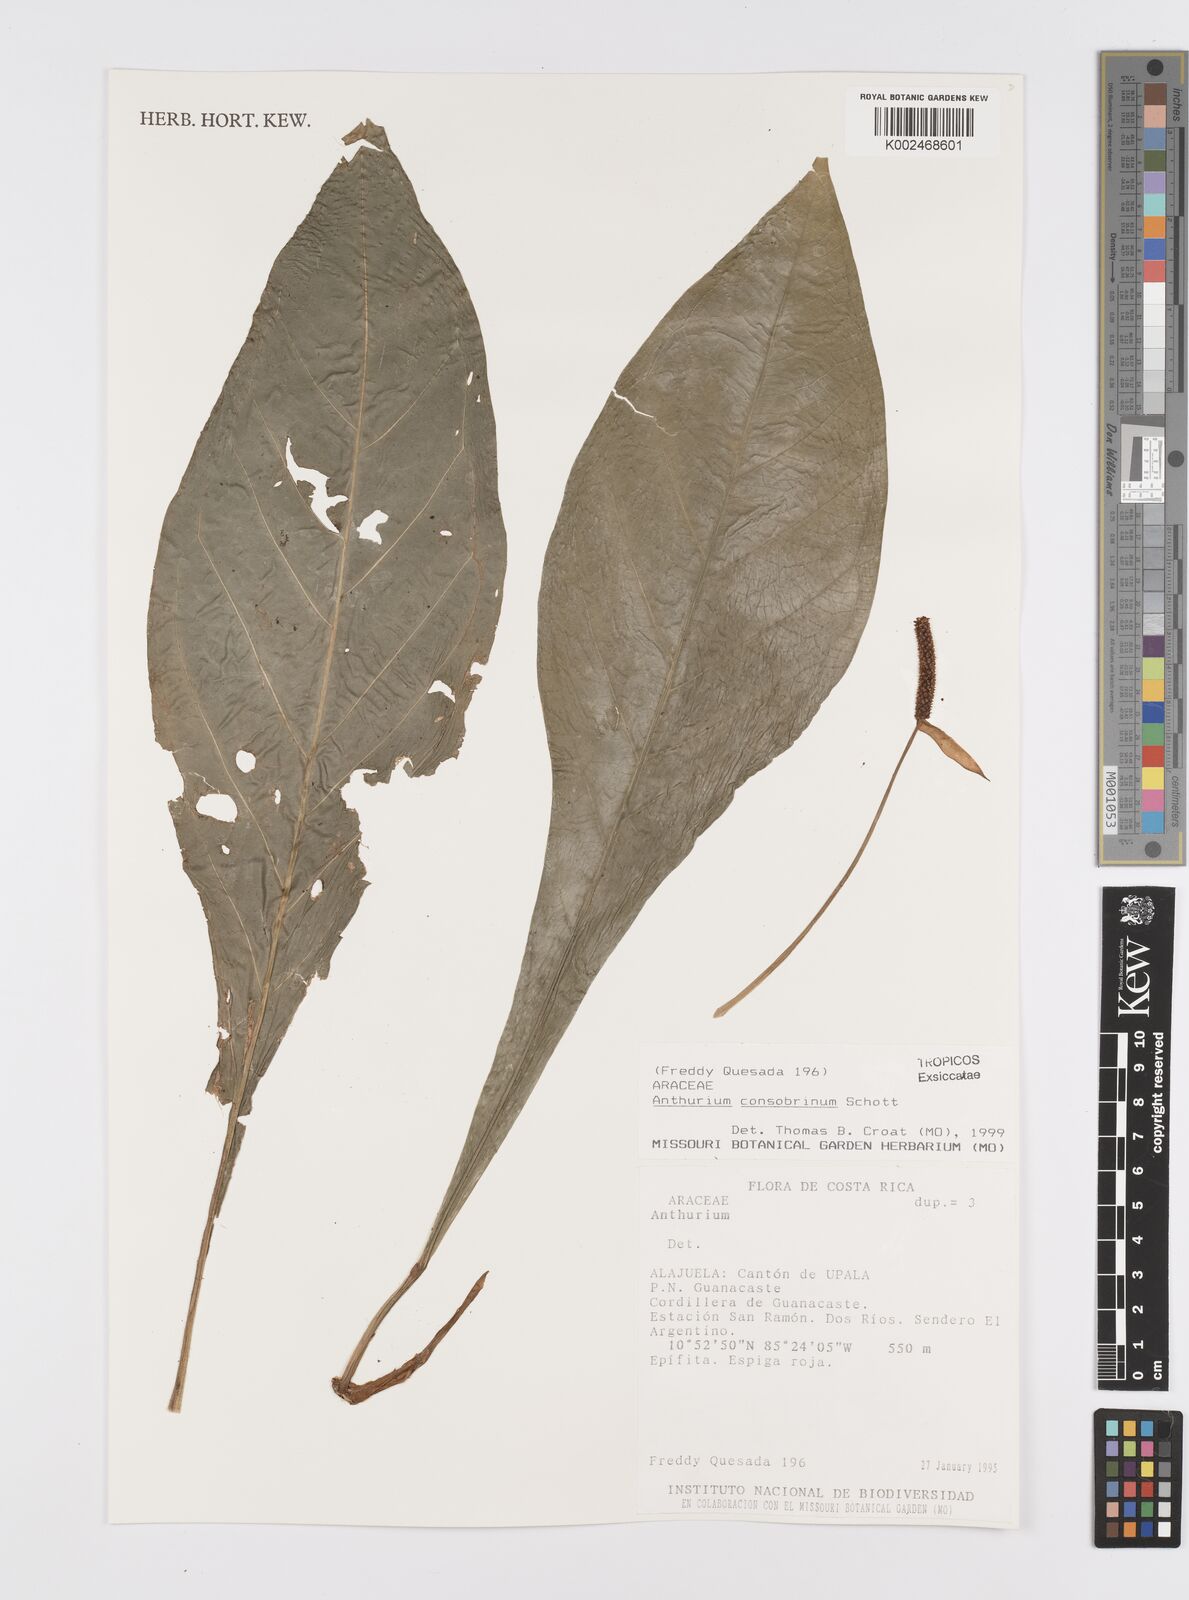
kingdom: Plantae
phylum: Tracheophyta
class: Liliopsida
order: Alismatales
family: Araceae
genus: Anthurium
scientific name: Anthurium consobrinum
